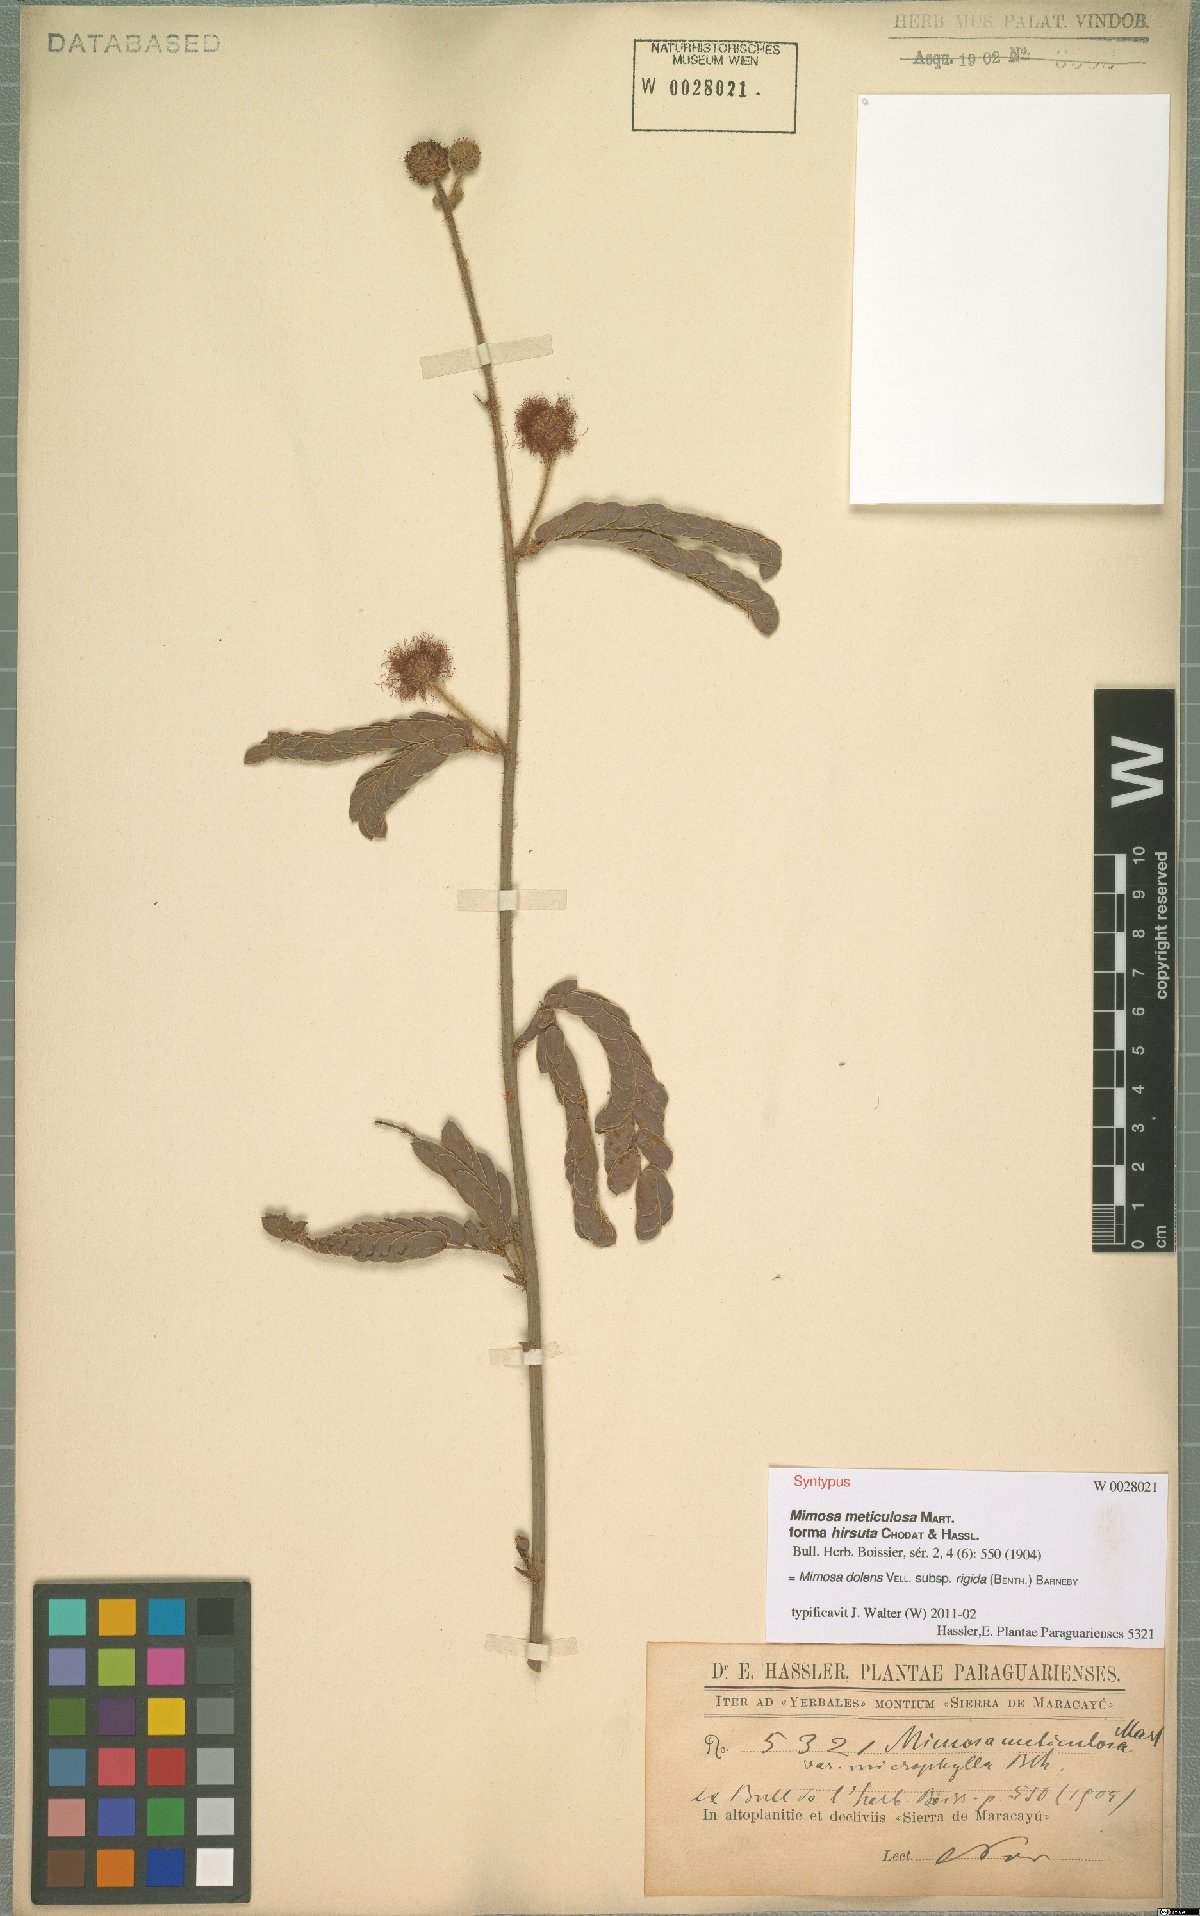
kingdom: Plantae
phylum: Tracheophyta
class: Magnoliopsida
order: Fabales
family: Fabaceae
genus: Mimosa
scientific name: Mimosa dolens
